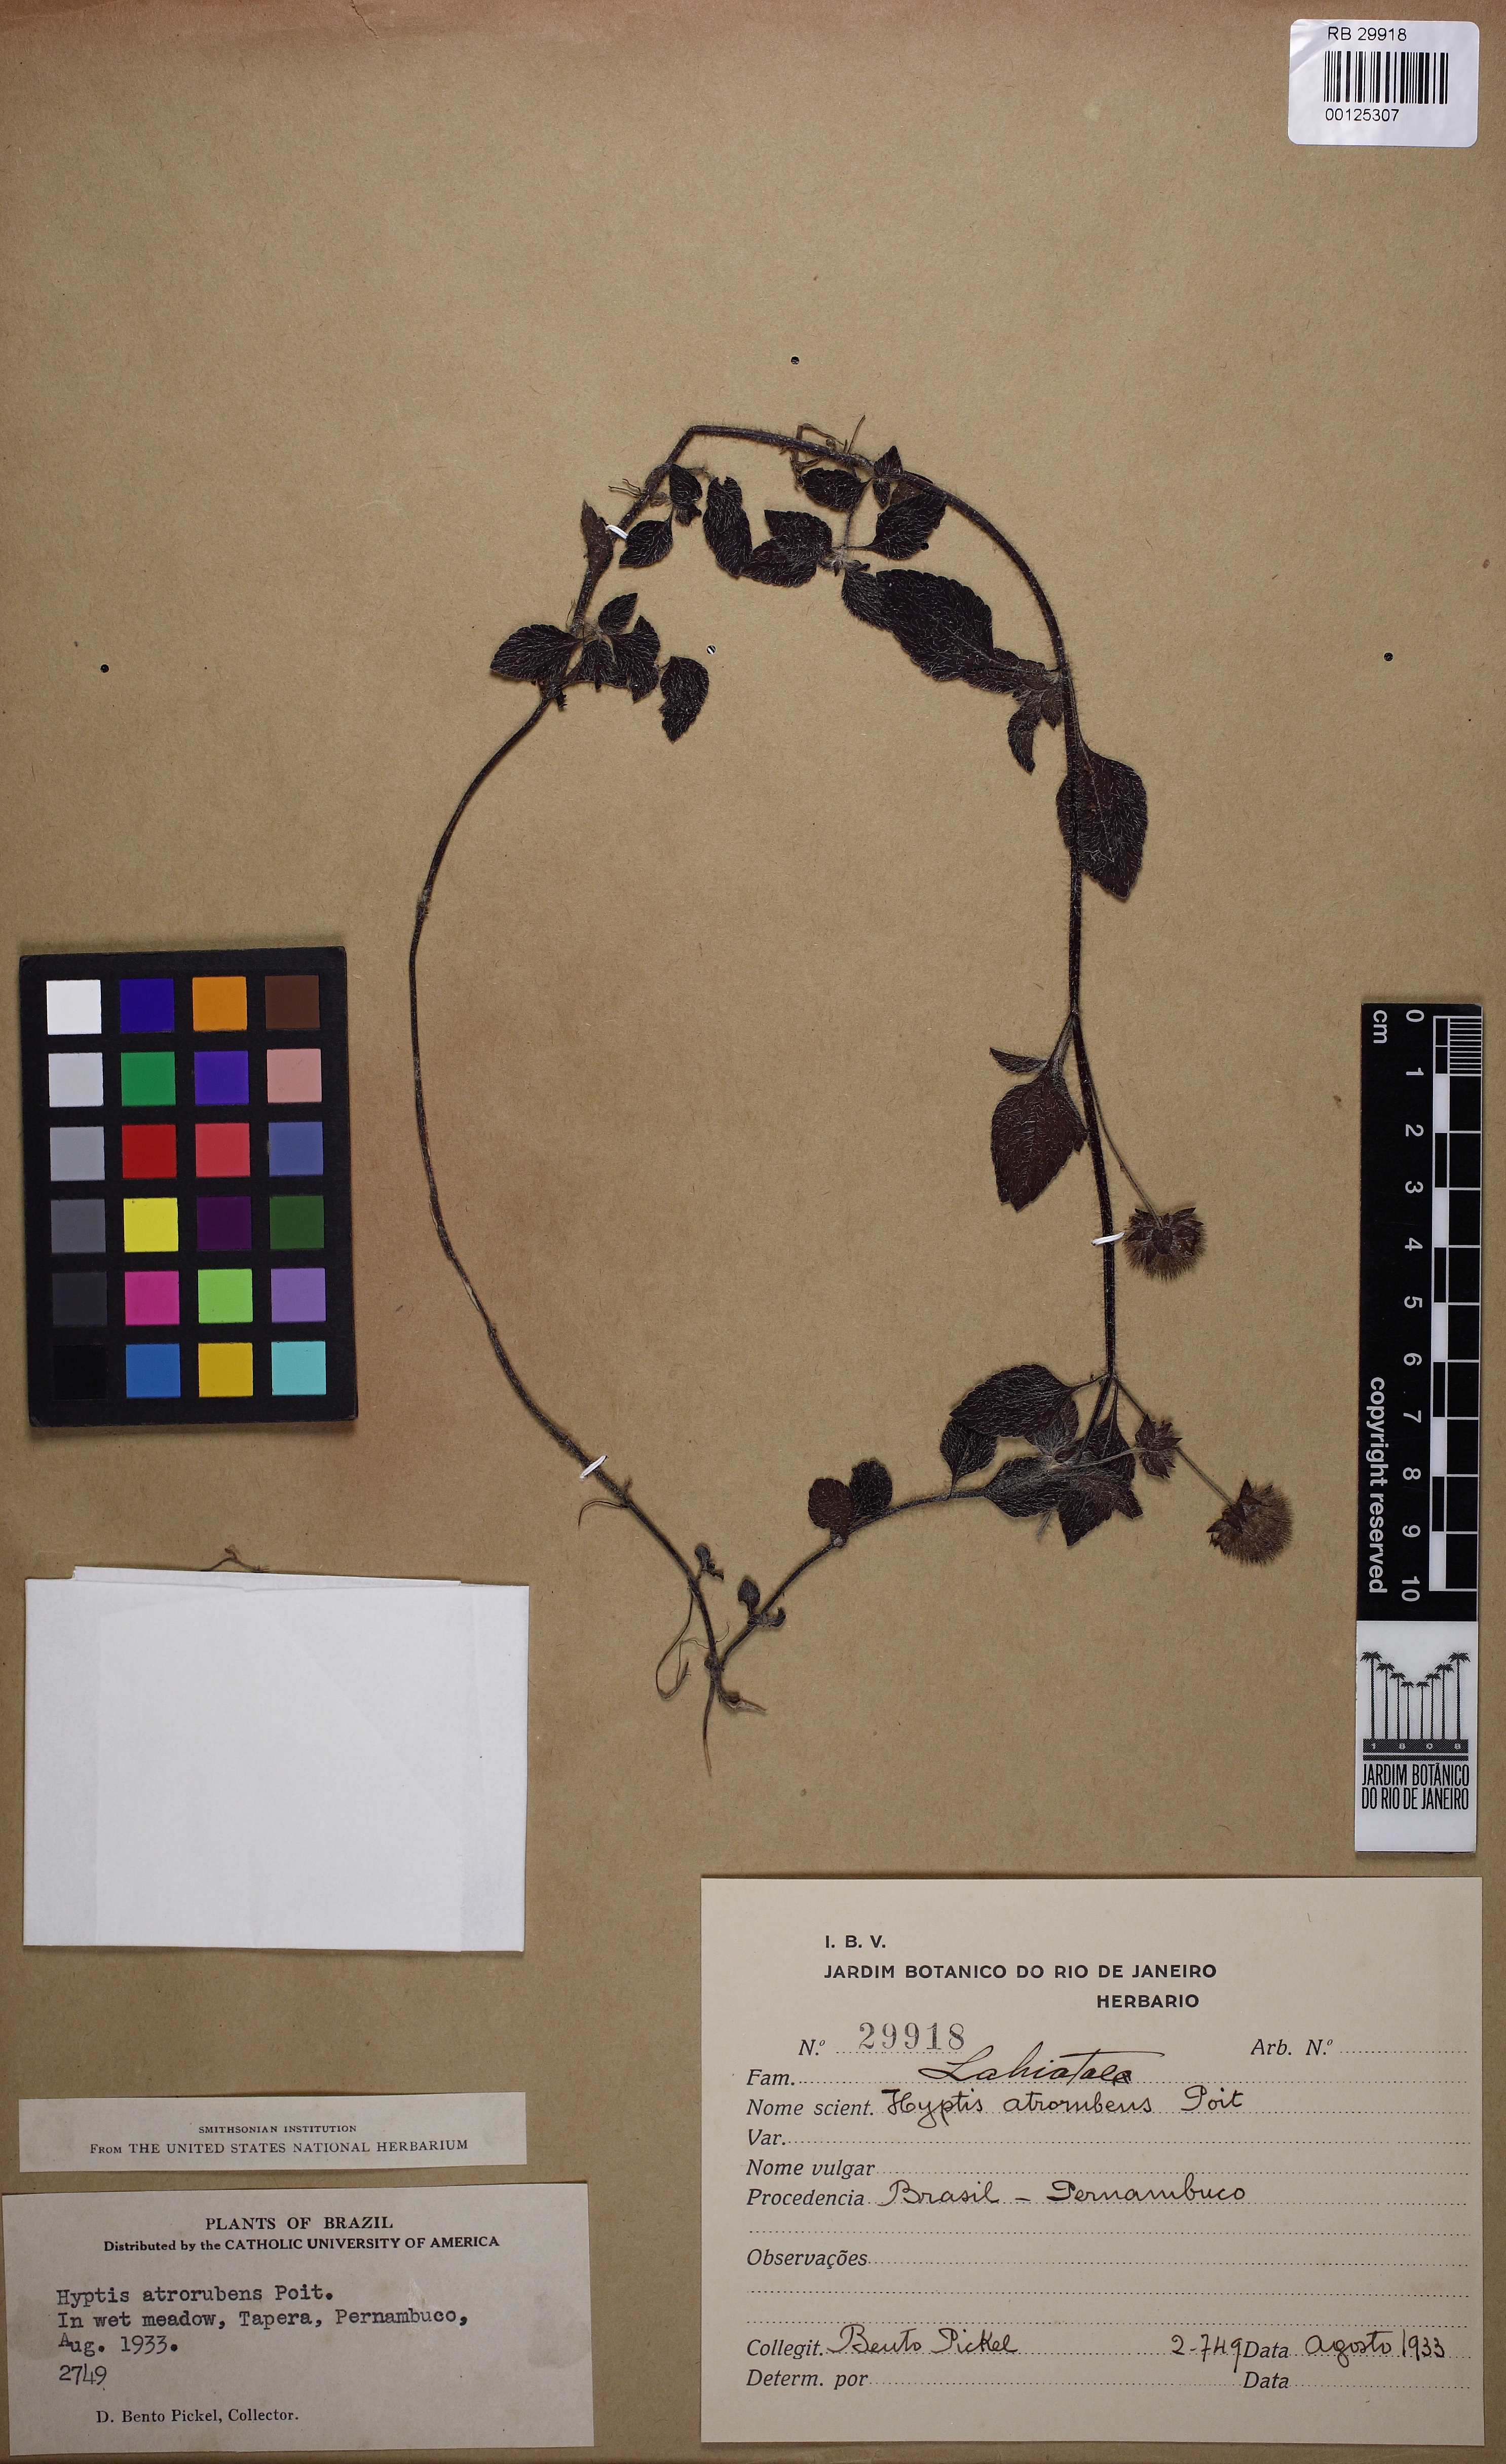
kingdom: Plantae
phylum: Tracheophyta
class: Magnoliopsida
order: Lamiales
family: Lamiaceae
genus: Hyptis
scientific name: Hyptis atrorubens
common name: Lanmant
